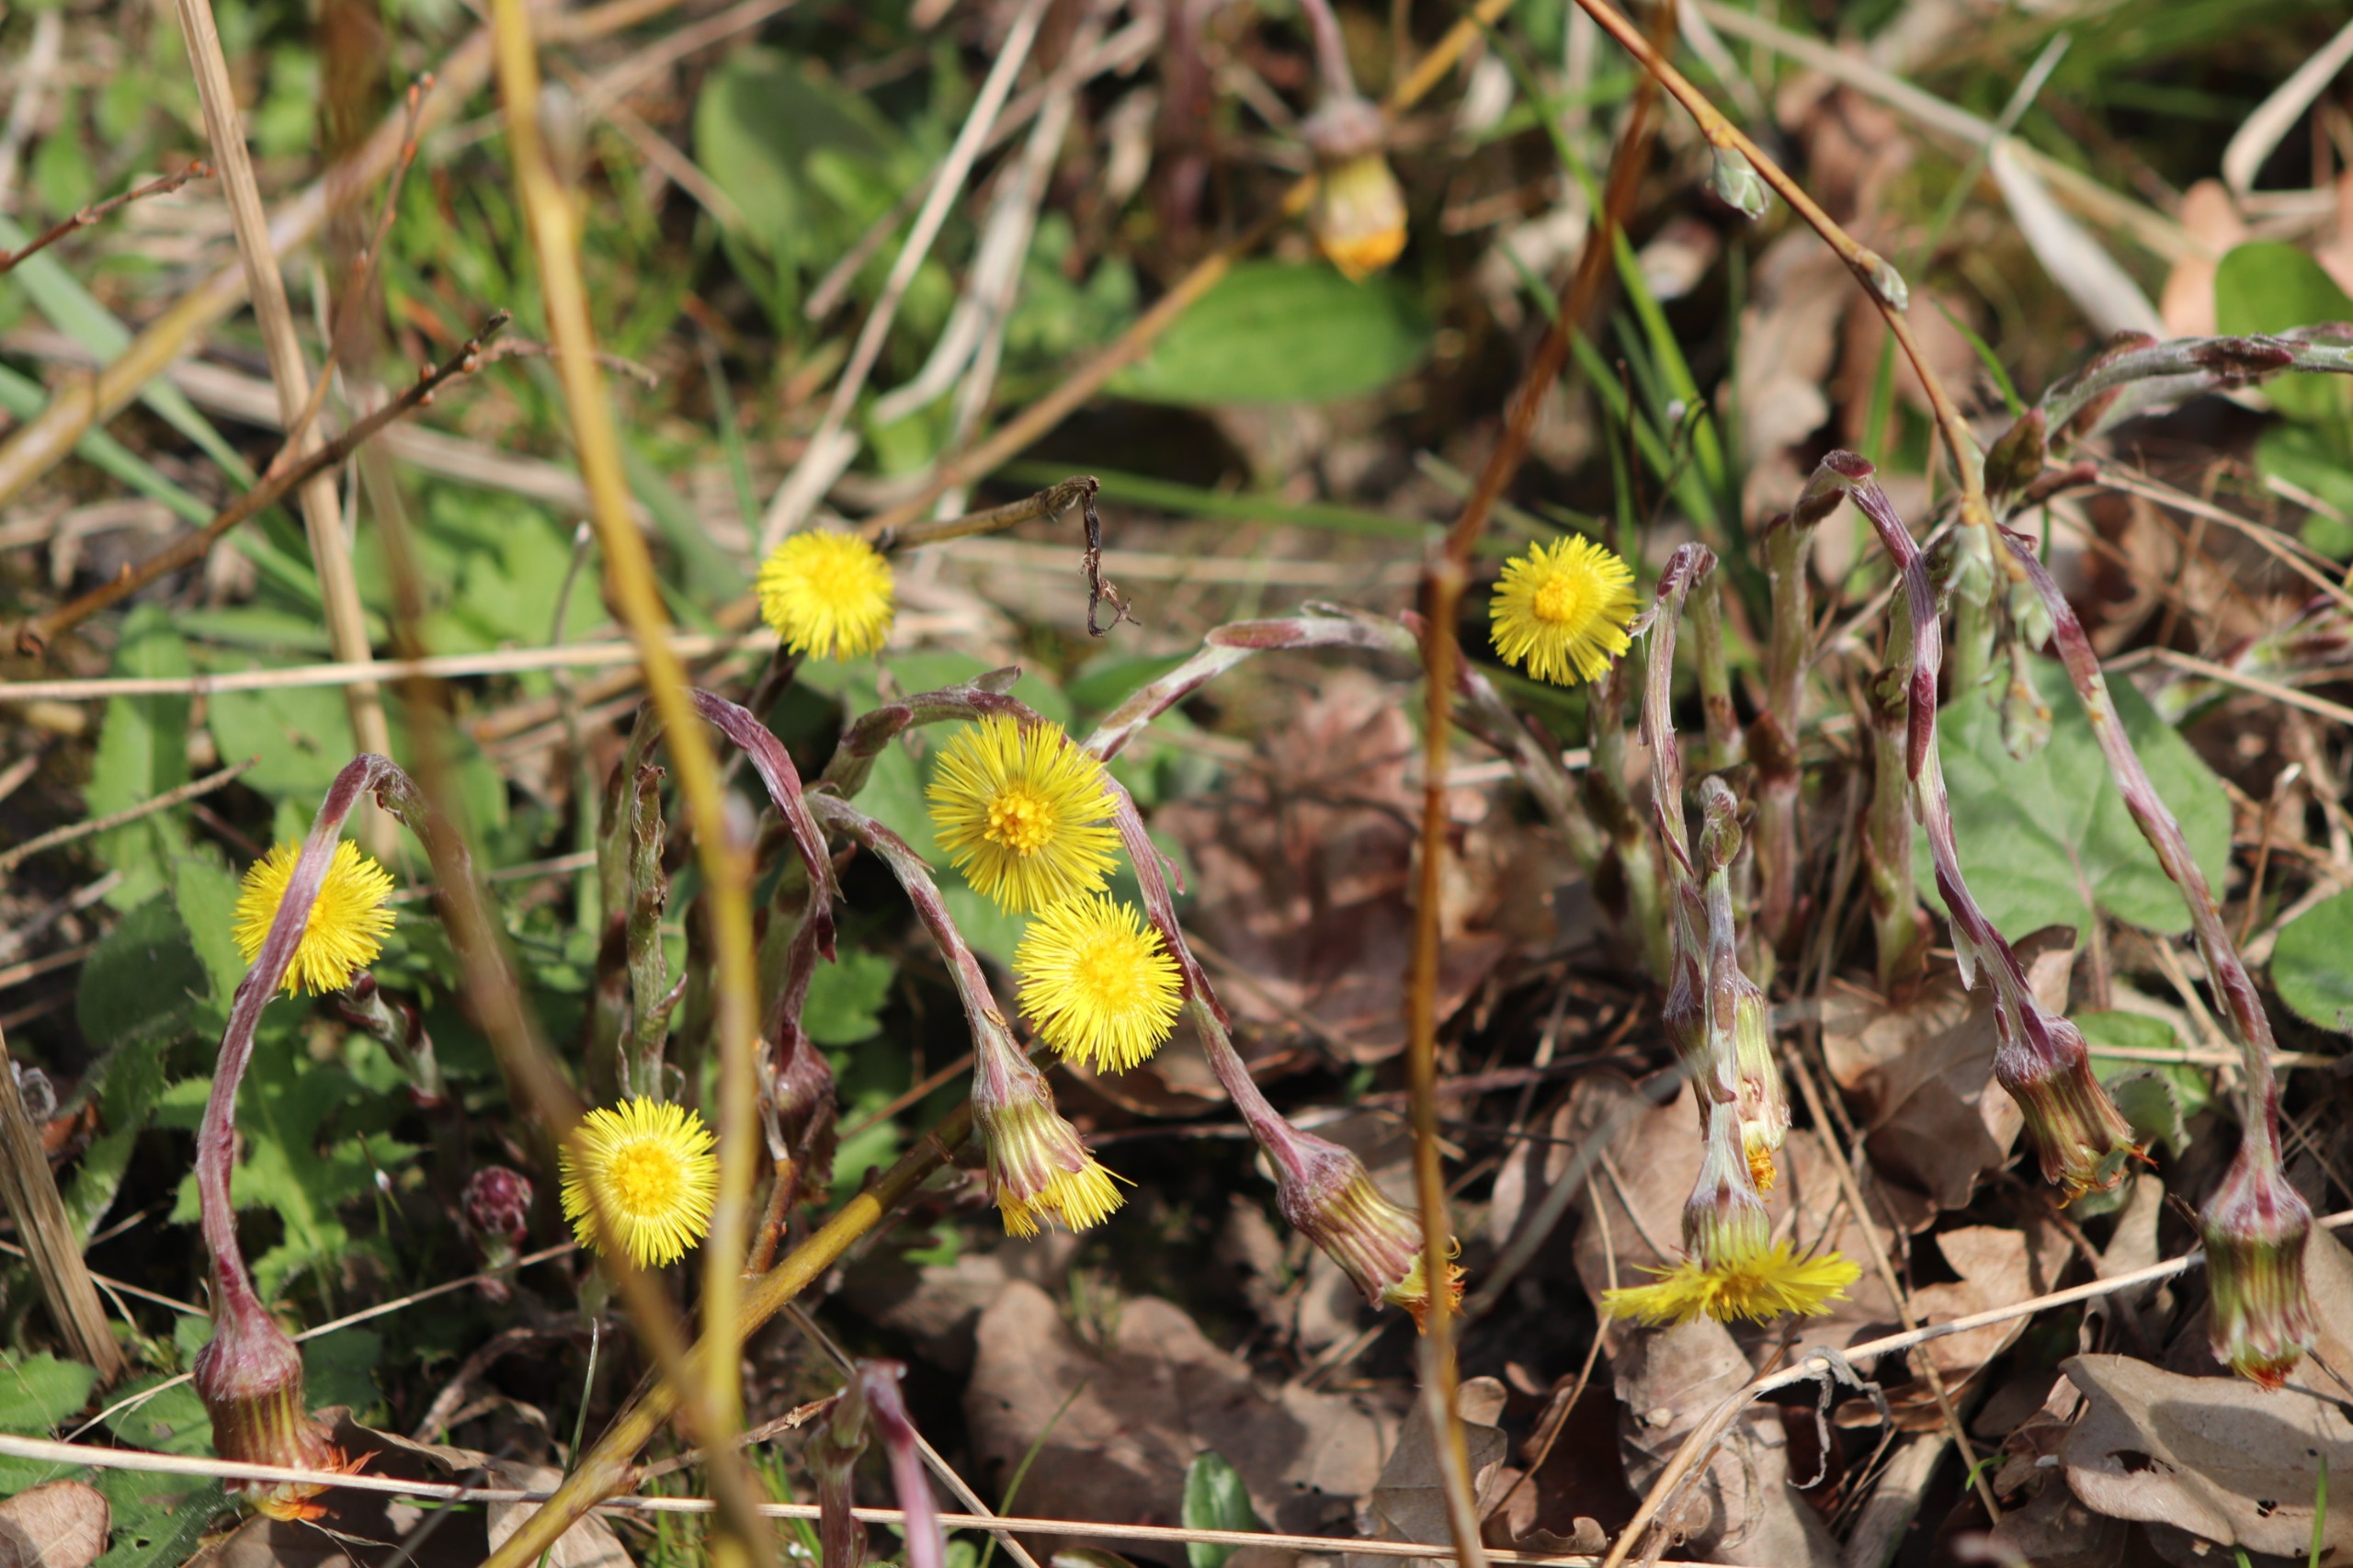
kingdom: Plantae
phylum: Tracheophyta
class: Magnoliopsida
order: Asterales
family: Asteraceae
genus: Tussilago
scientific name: Tussilago farfara
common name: Følfod
